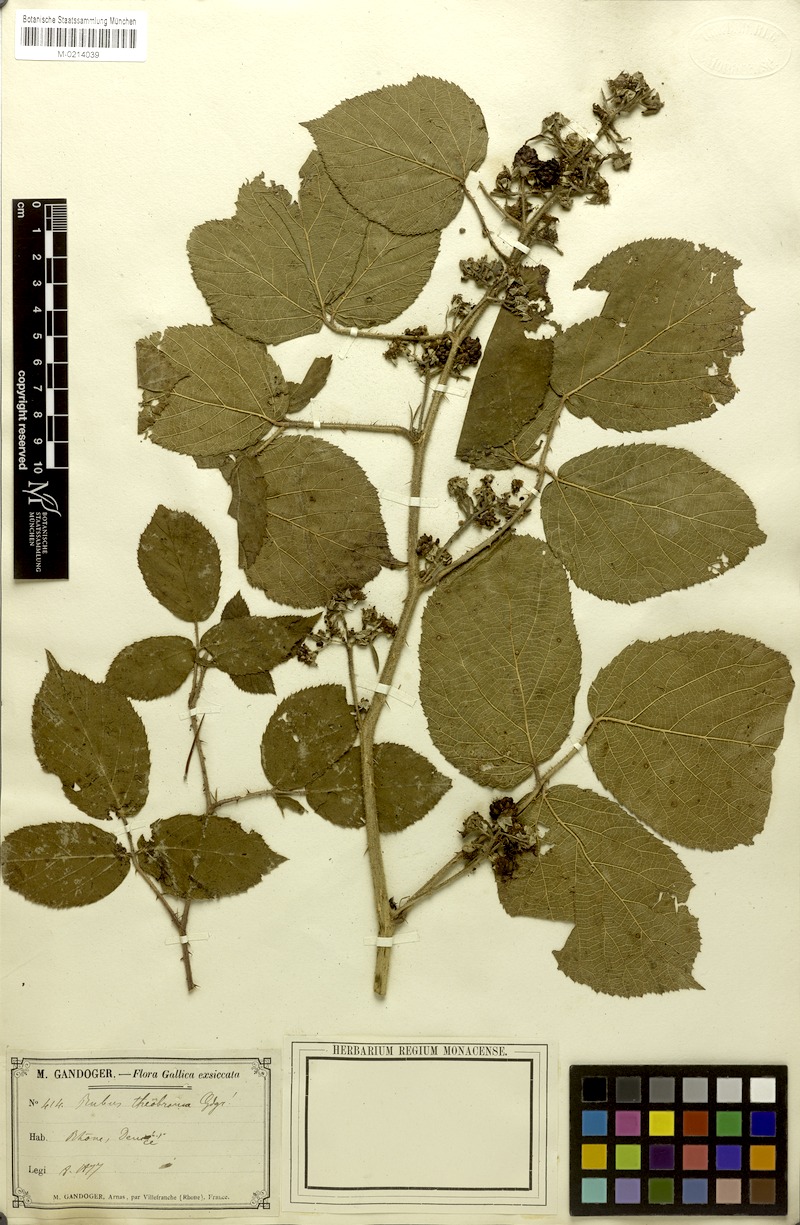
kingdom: Plantae
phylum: Tracheophyta
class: Magnoliopsida
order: Rosales
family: Rosaceae
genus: Rubus
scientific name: Rubus
